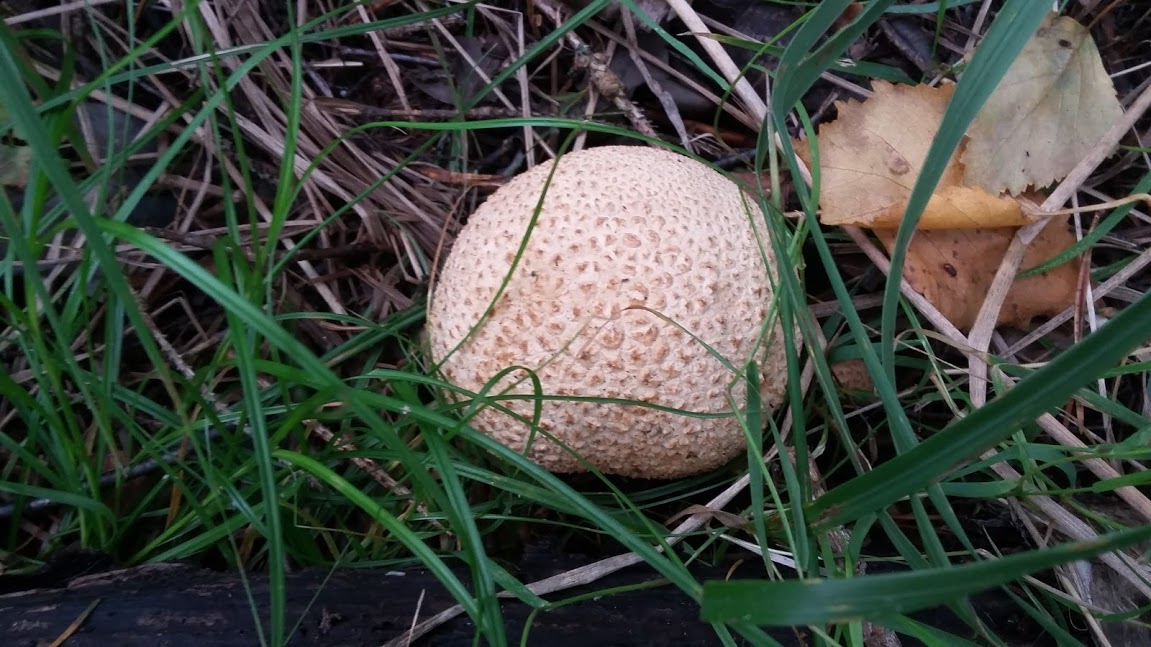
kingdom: Fungi
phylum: Basidiomycota
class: Agaricomycetes
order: Boletales
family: Sclerodermataceae
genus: Scleroderma
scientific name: Scleroderma citrinum
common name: almindelig bruskbold
